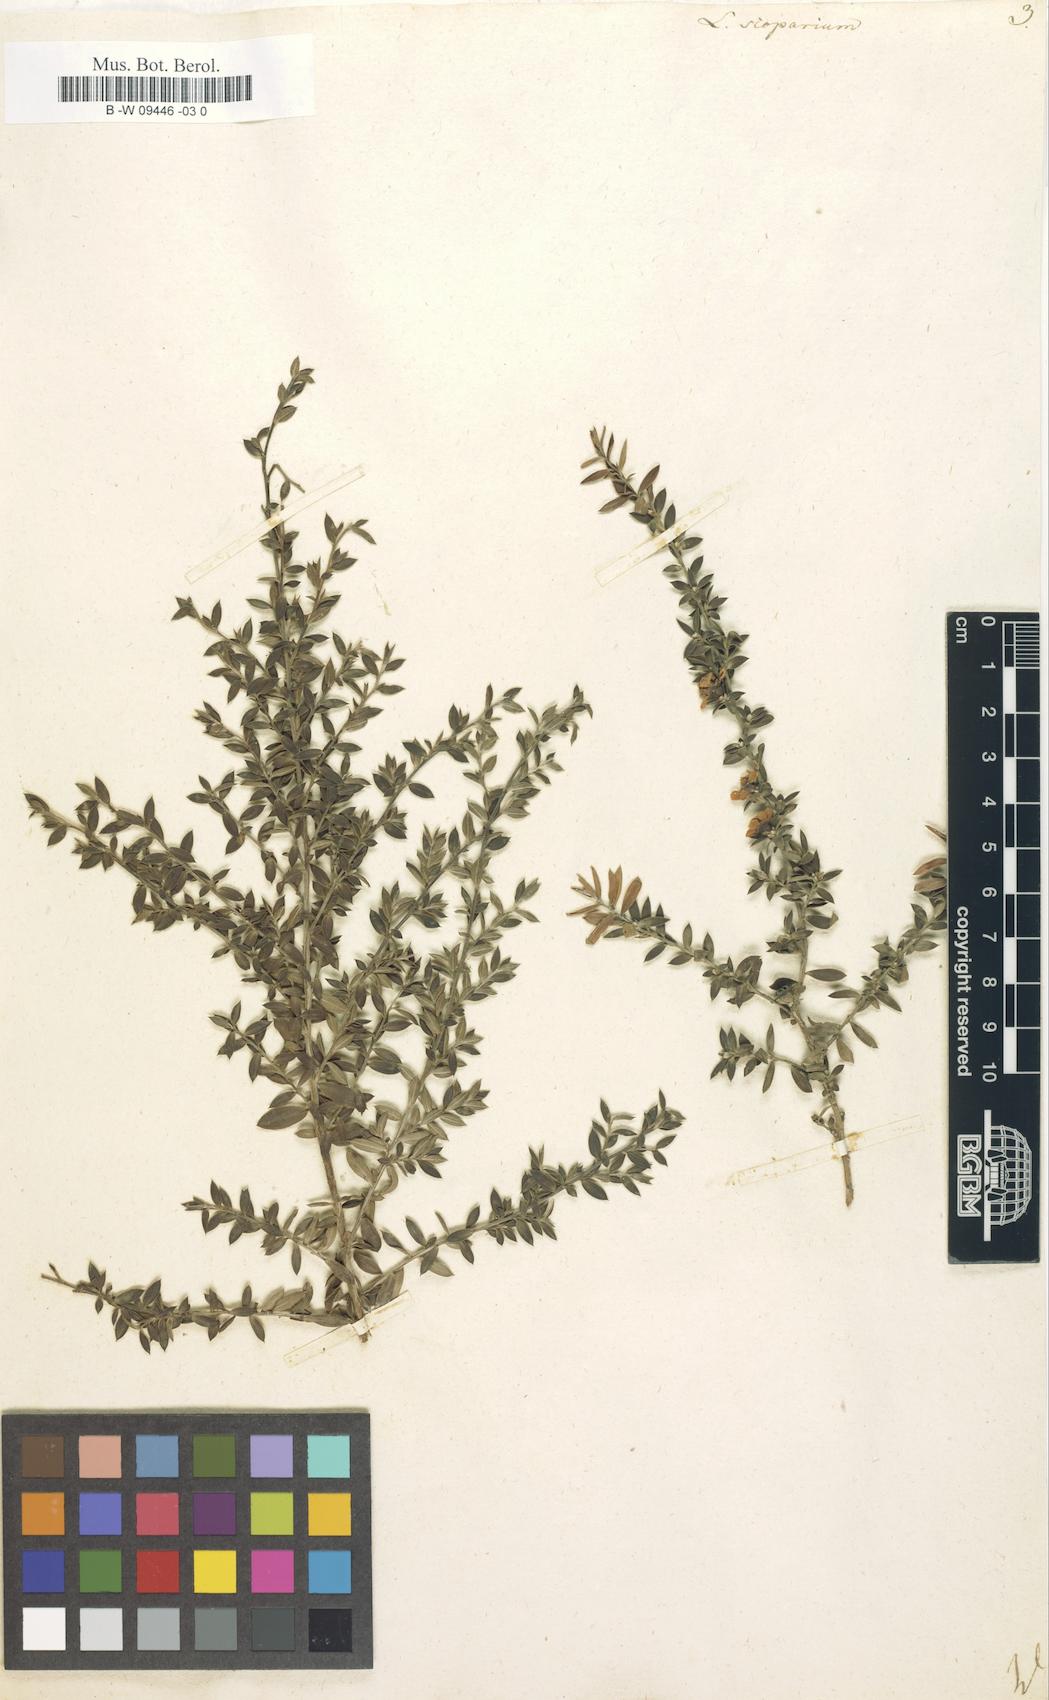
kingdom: Plantae
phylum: Tracheophyta
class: Magnoliopsida
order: Myrtales
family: Myrtaceae
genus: Leptospermum
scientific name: Leptospermum scoparium
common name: Broom tea-tree
